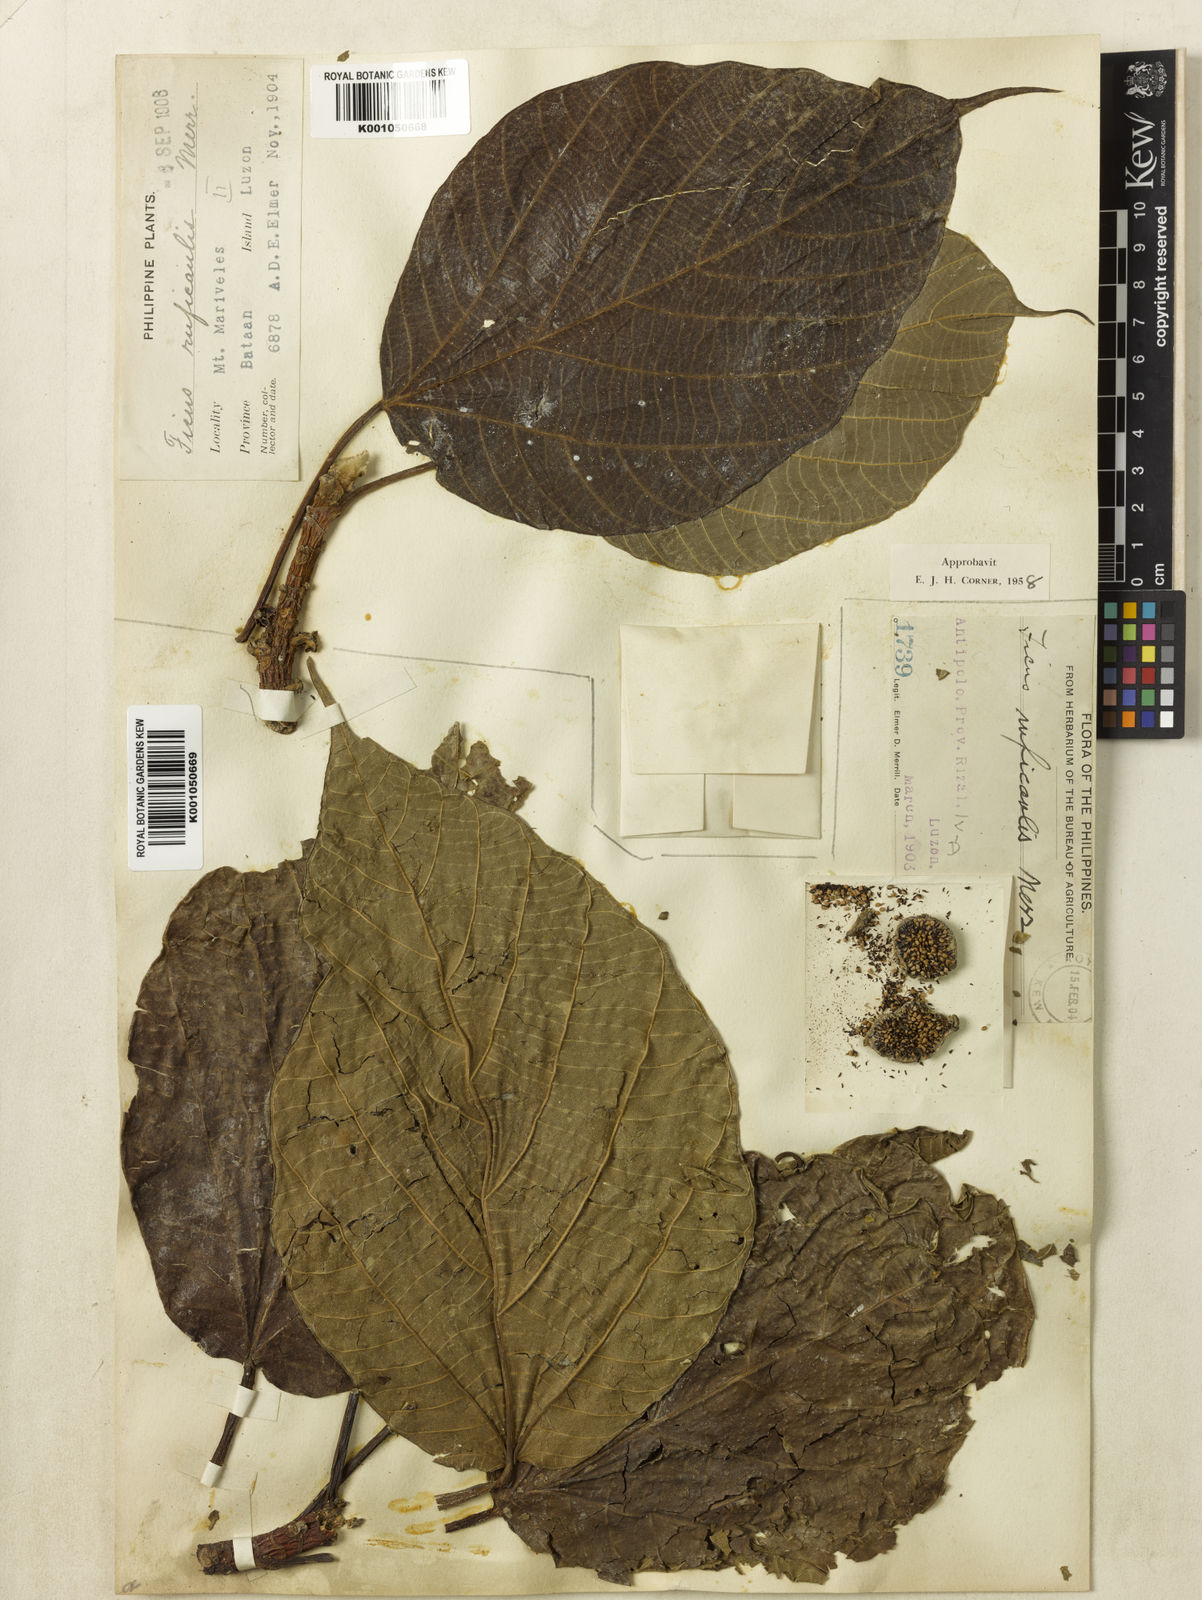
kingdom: Plantae
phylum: Tracheophyta
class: Magnoliopsida
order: Rosales
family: Moraceae
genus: Ficus
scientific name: Ficus ruficaulis
